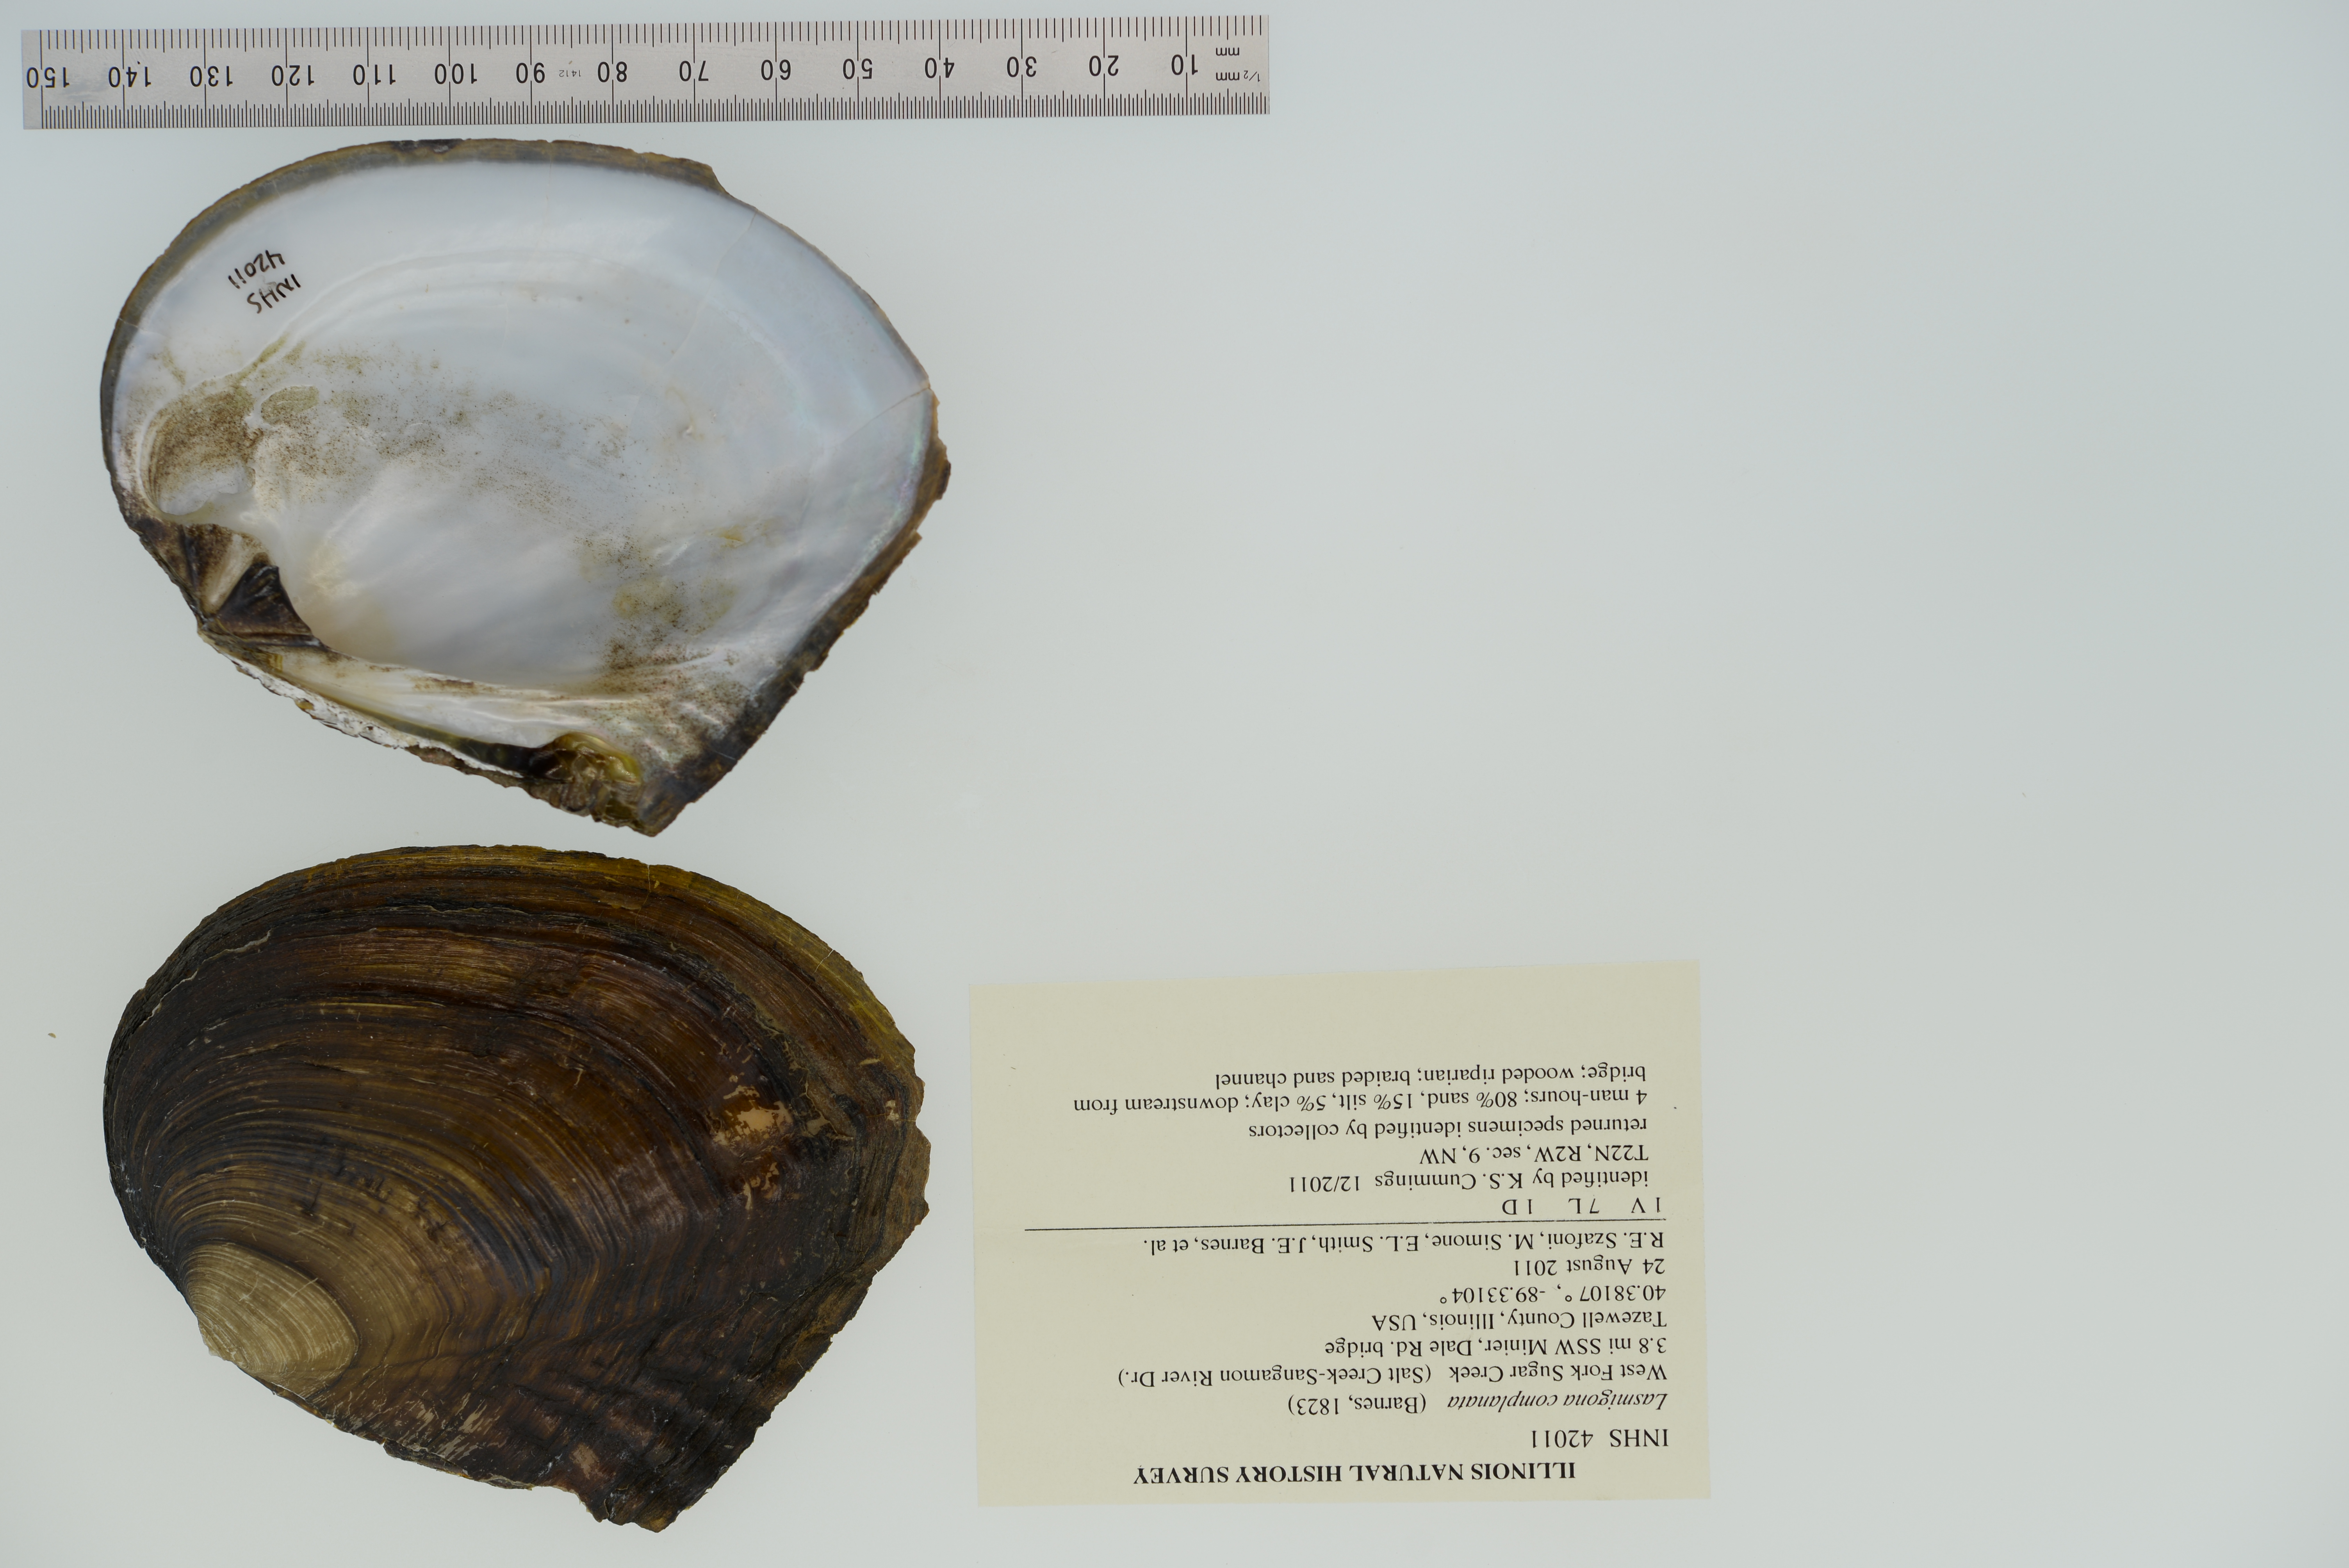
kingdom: Animalia
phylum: Mollusca
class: Bivalvia
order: Unionida
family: Unionidae
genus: Lasmigona
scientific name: Lasmigona complanata
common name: White heelsplitter
